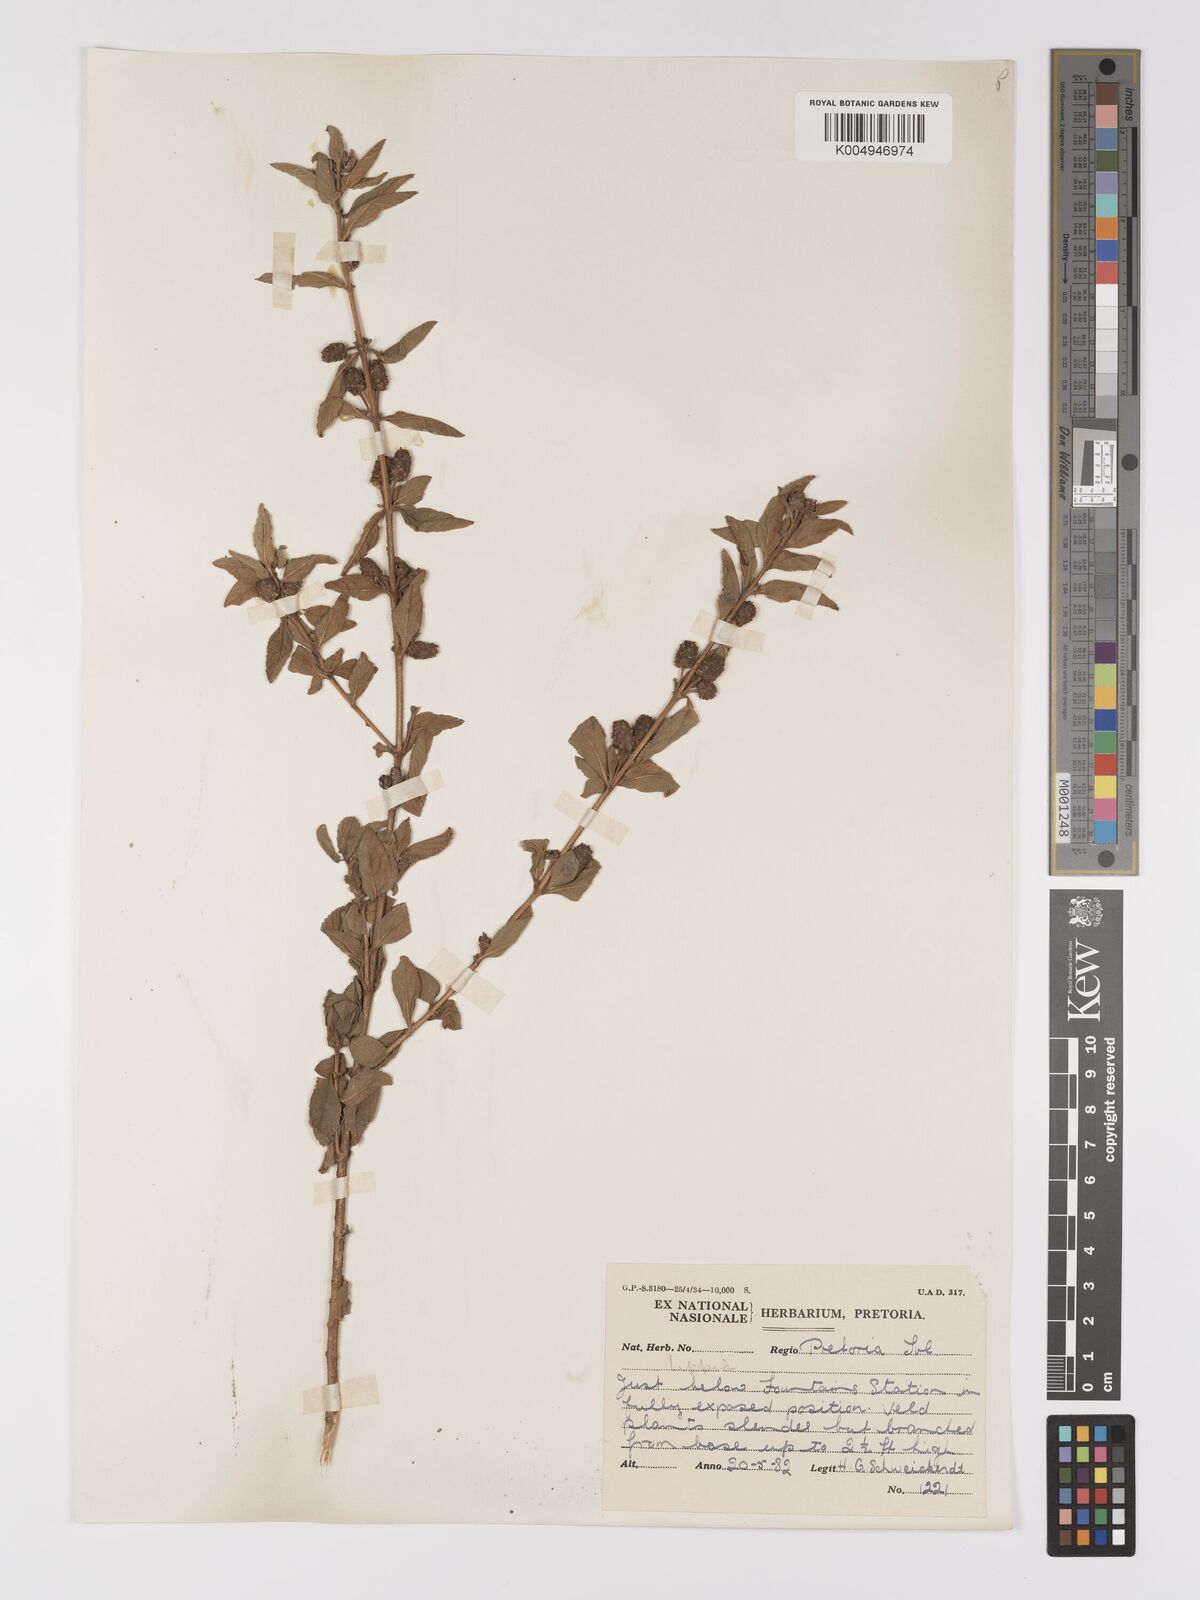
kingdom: Plantae
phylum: Tracheophyta
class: Magnoliopsida
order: Lamiales
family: Verbenaceae
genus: Lippia
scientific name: Lippia
